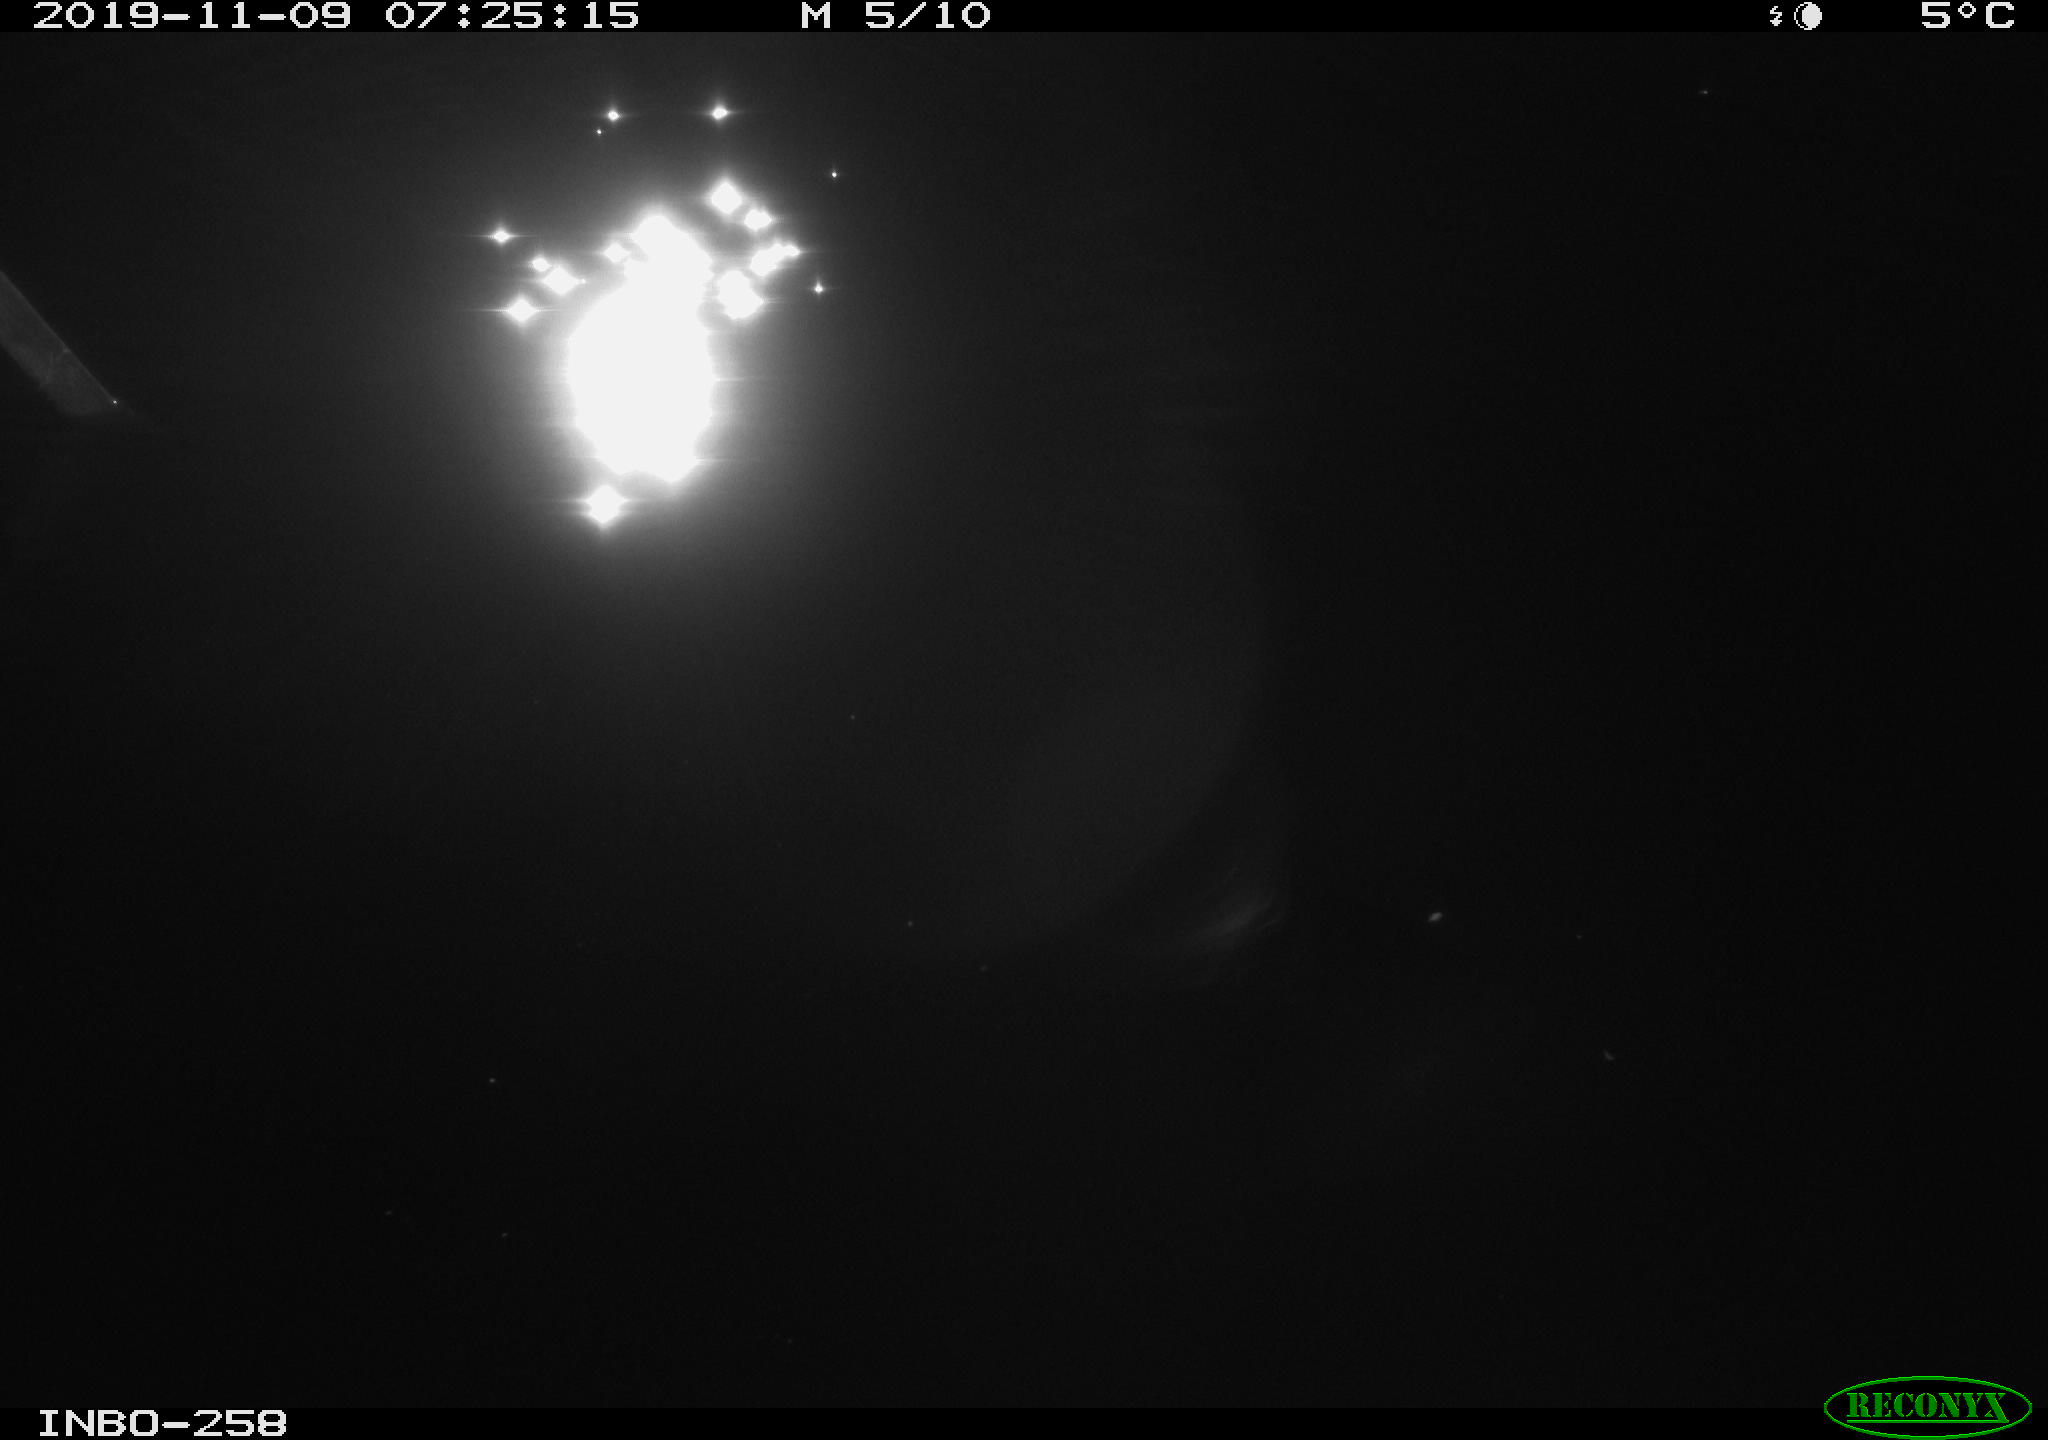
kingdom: Animalia
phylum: Chordata
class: Aves
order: Anseriformes
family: Anatidae
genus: Anas
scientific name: Anas platyrhynchos
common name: Mallard
